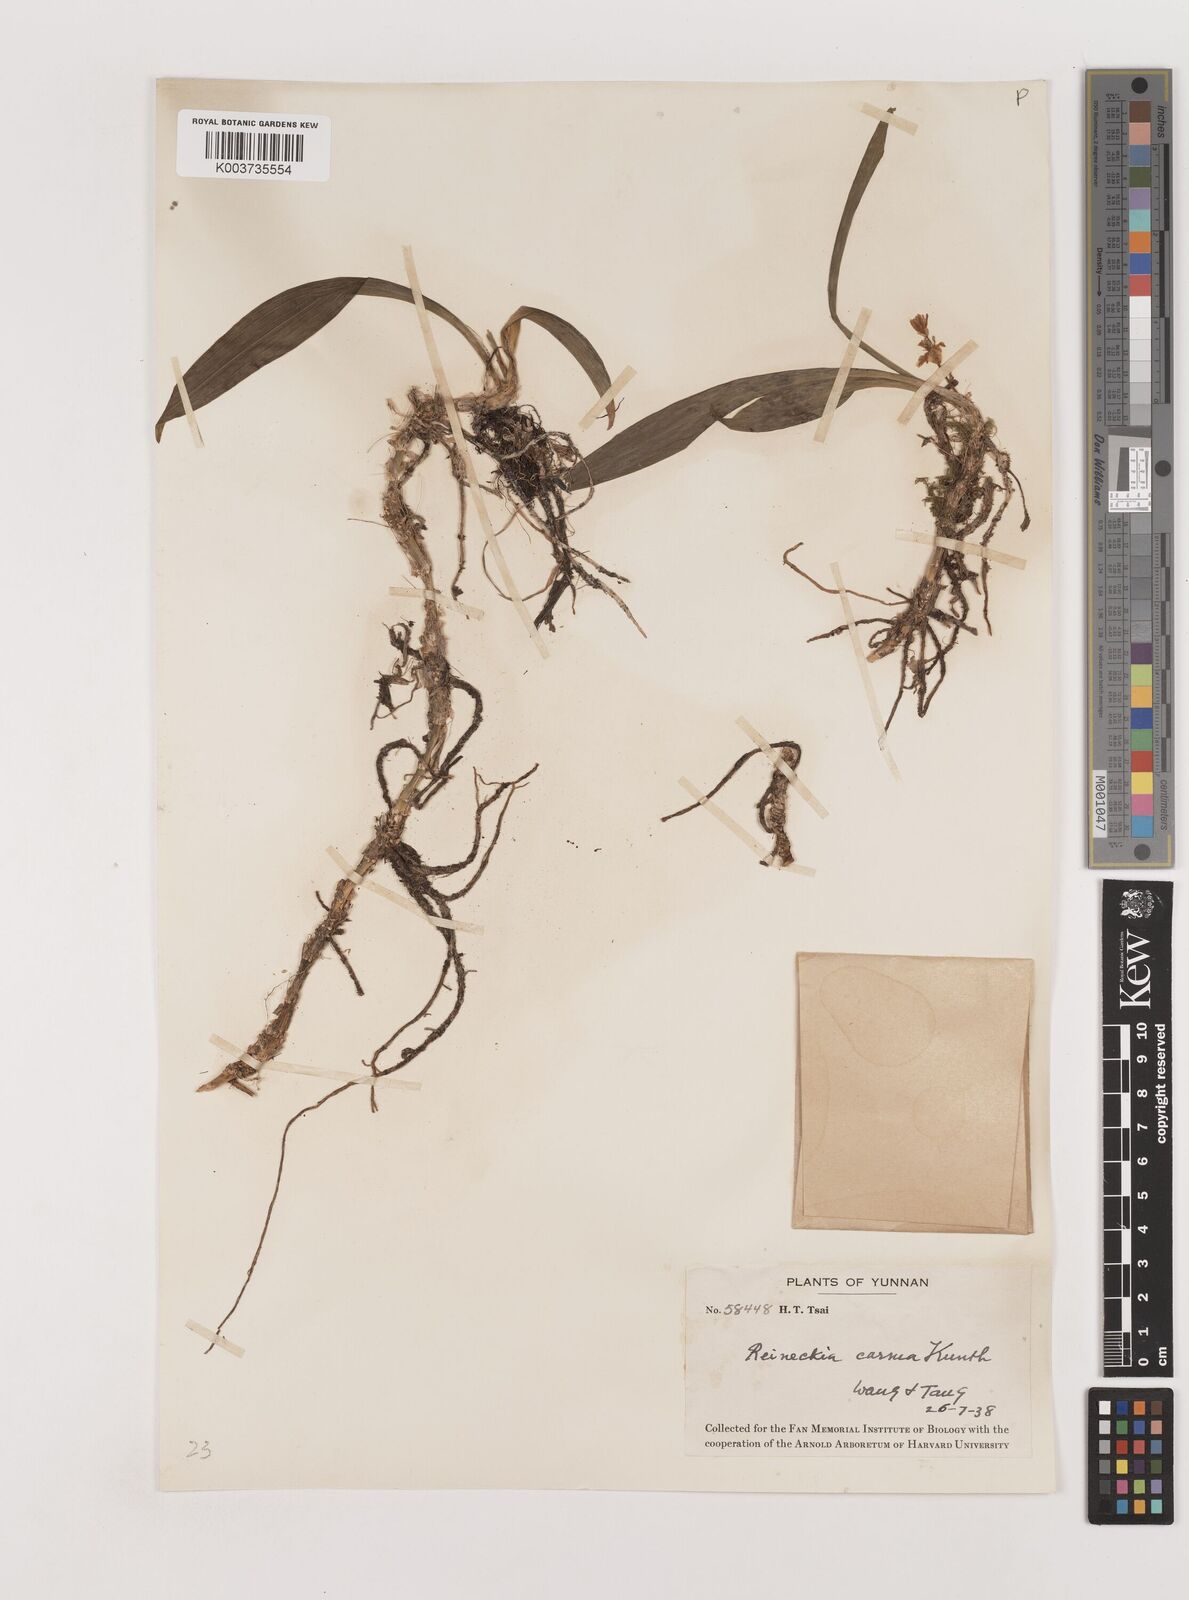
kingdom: Plantae
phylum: Tracheophyta
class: Liliopsida
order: Asparagales
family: Asparagaceae
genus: Reineckea
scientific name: Reineckea carnea
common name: Reineckea
